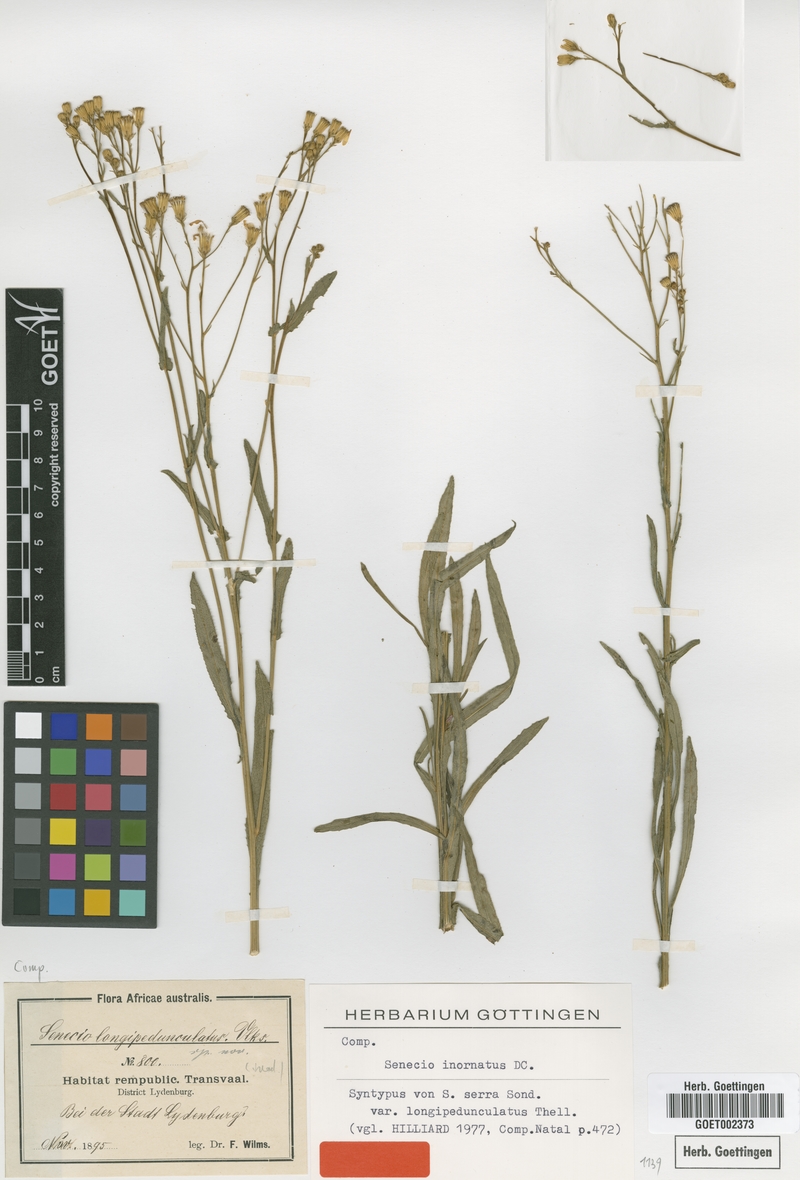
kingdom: Plantae
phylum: Tracheophyta
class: Magnoliopsida
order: Asterales
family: Asteraceae
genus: Senecio
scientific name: Senecio inornatus
